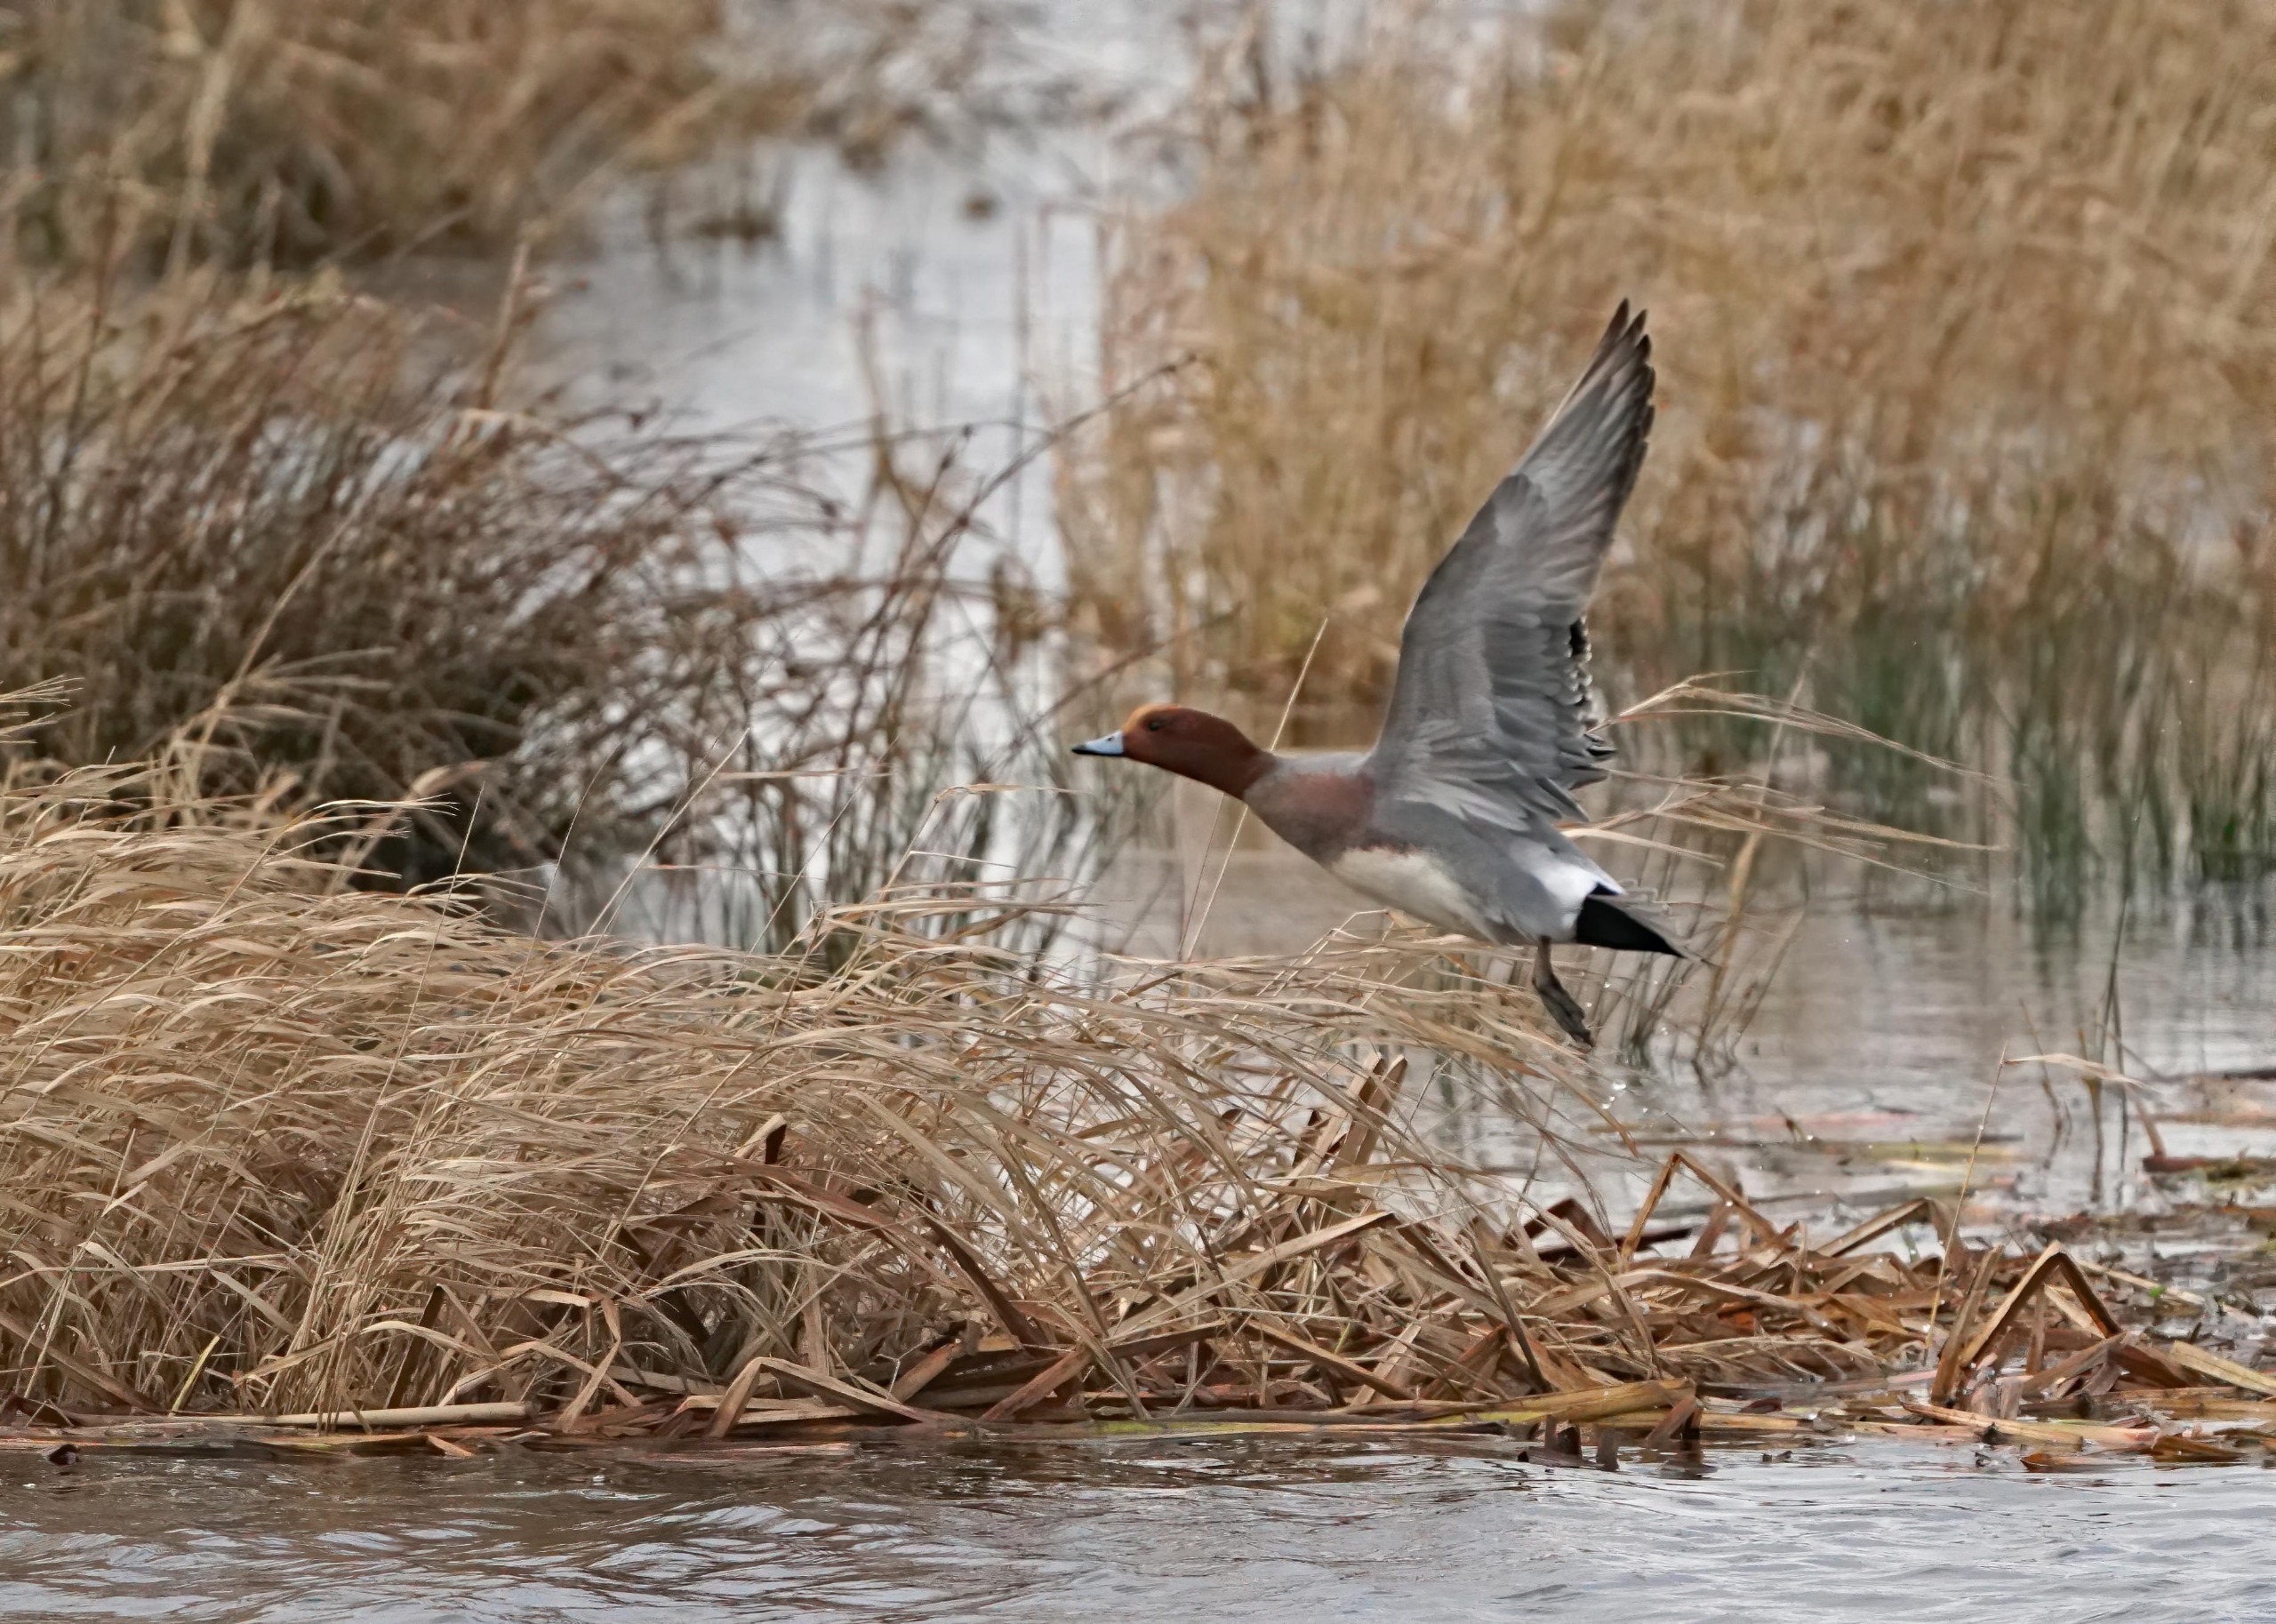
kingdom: Animalia
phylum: Chordata
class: Aves
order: Anseriformes
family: Anatidae
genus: Mareca
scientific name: Mareca penelope
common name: Pibeand
